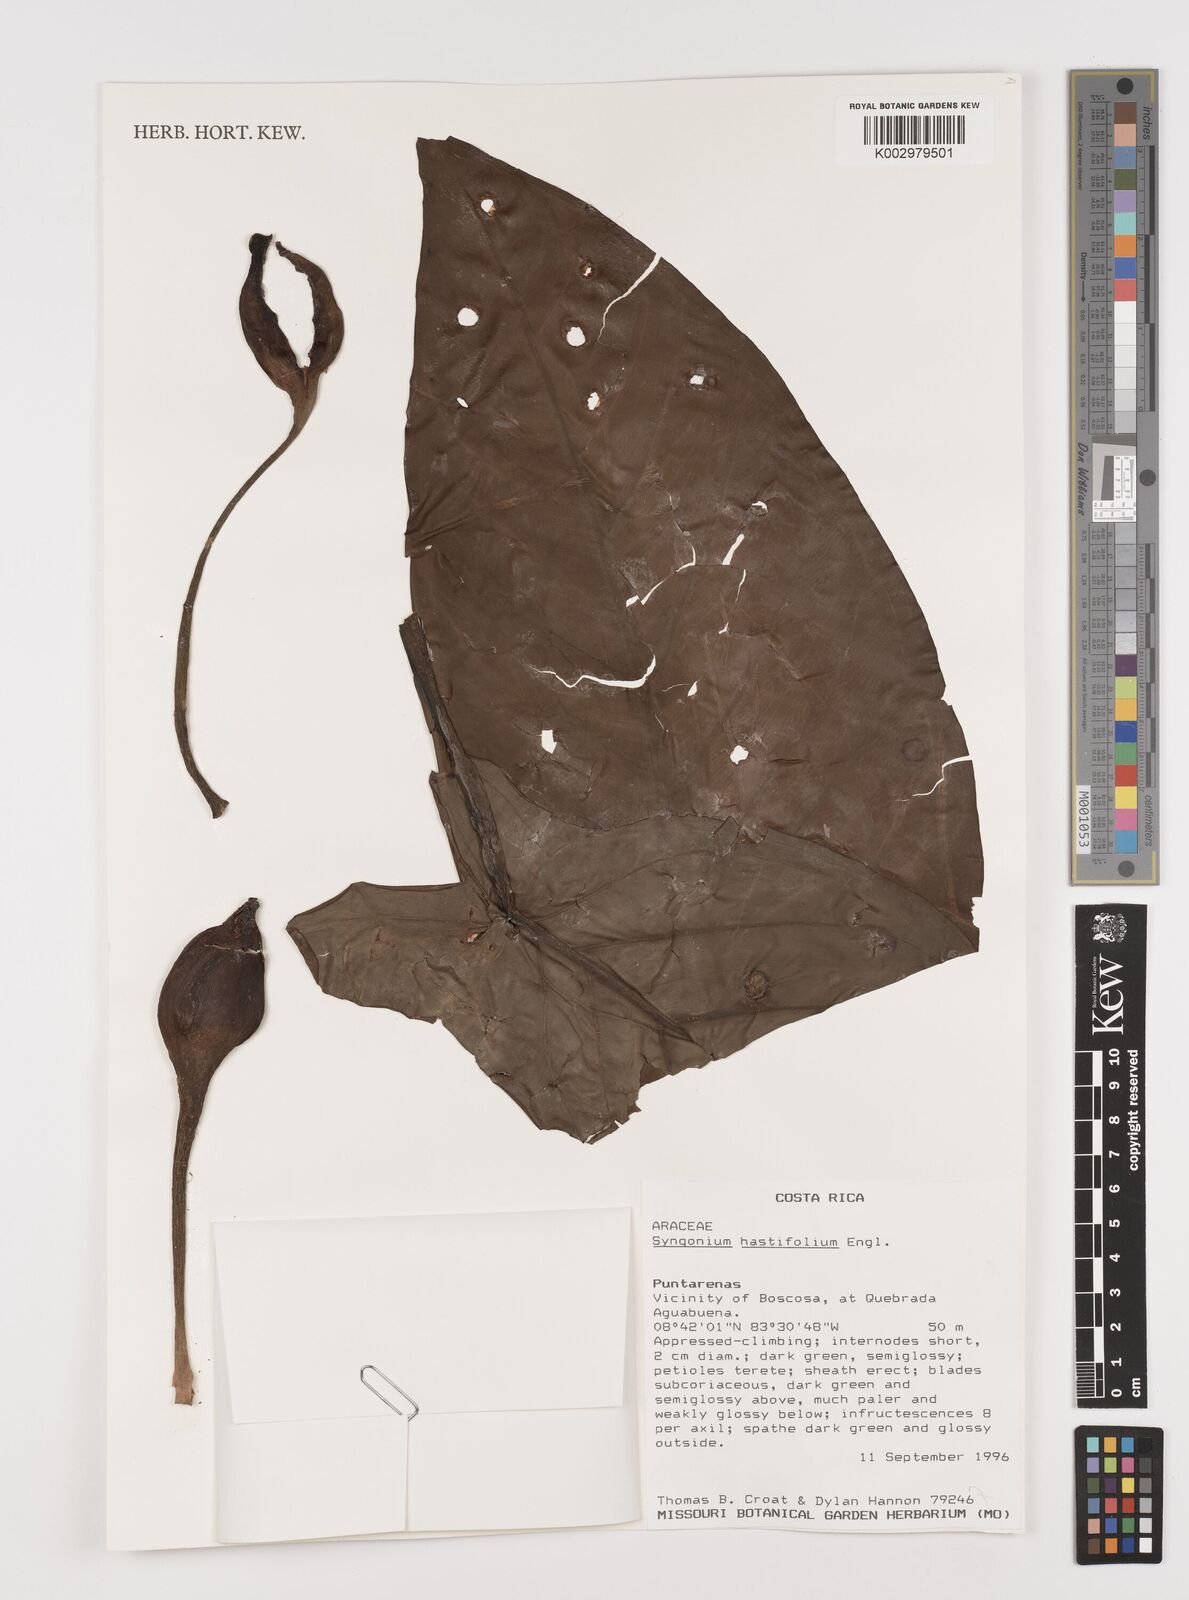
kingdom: Plantae
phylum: Tracheophyta
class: Liliopsida
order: Alismatales
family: Araceae
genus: Syngonium
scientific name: Syngonium hastifolium
